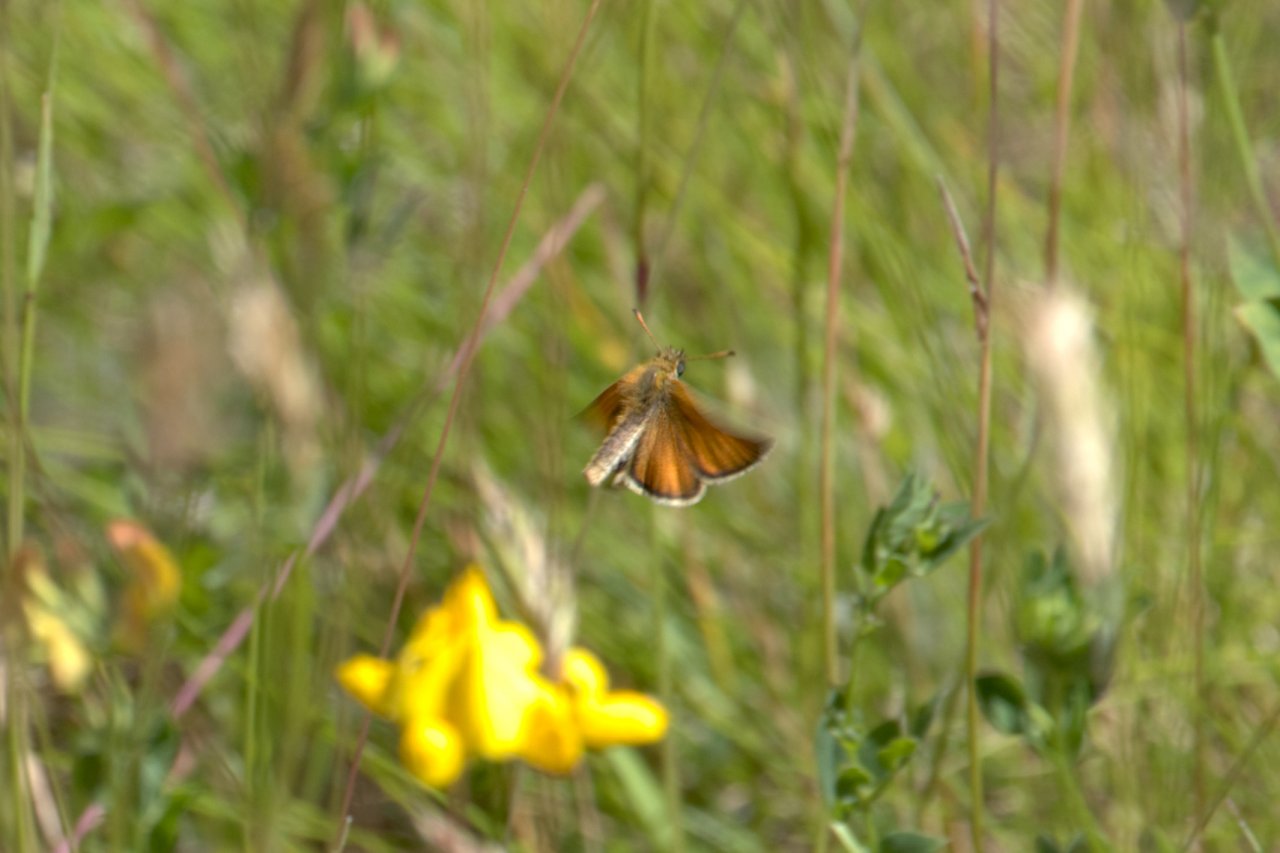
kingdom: Animalia
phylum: Arthropoda
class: Insecta
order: Lepidoptera
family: Hesperiidae
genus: Thymelicus
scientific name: Thymelicus lineola
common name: European Skipper
